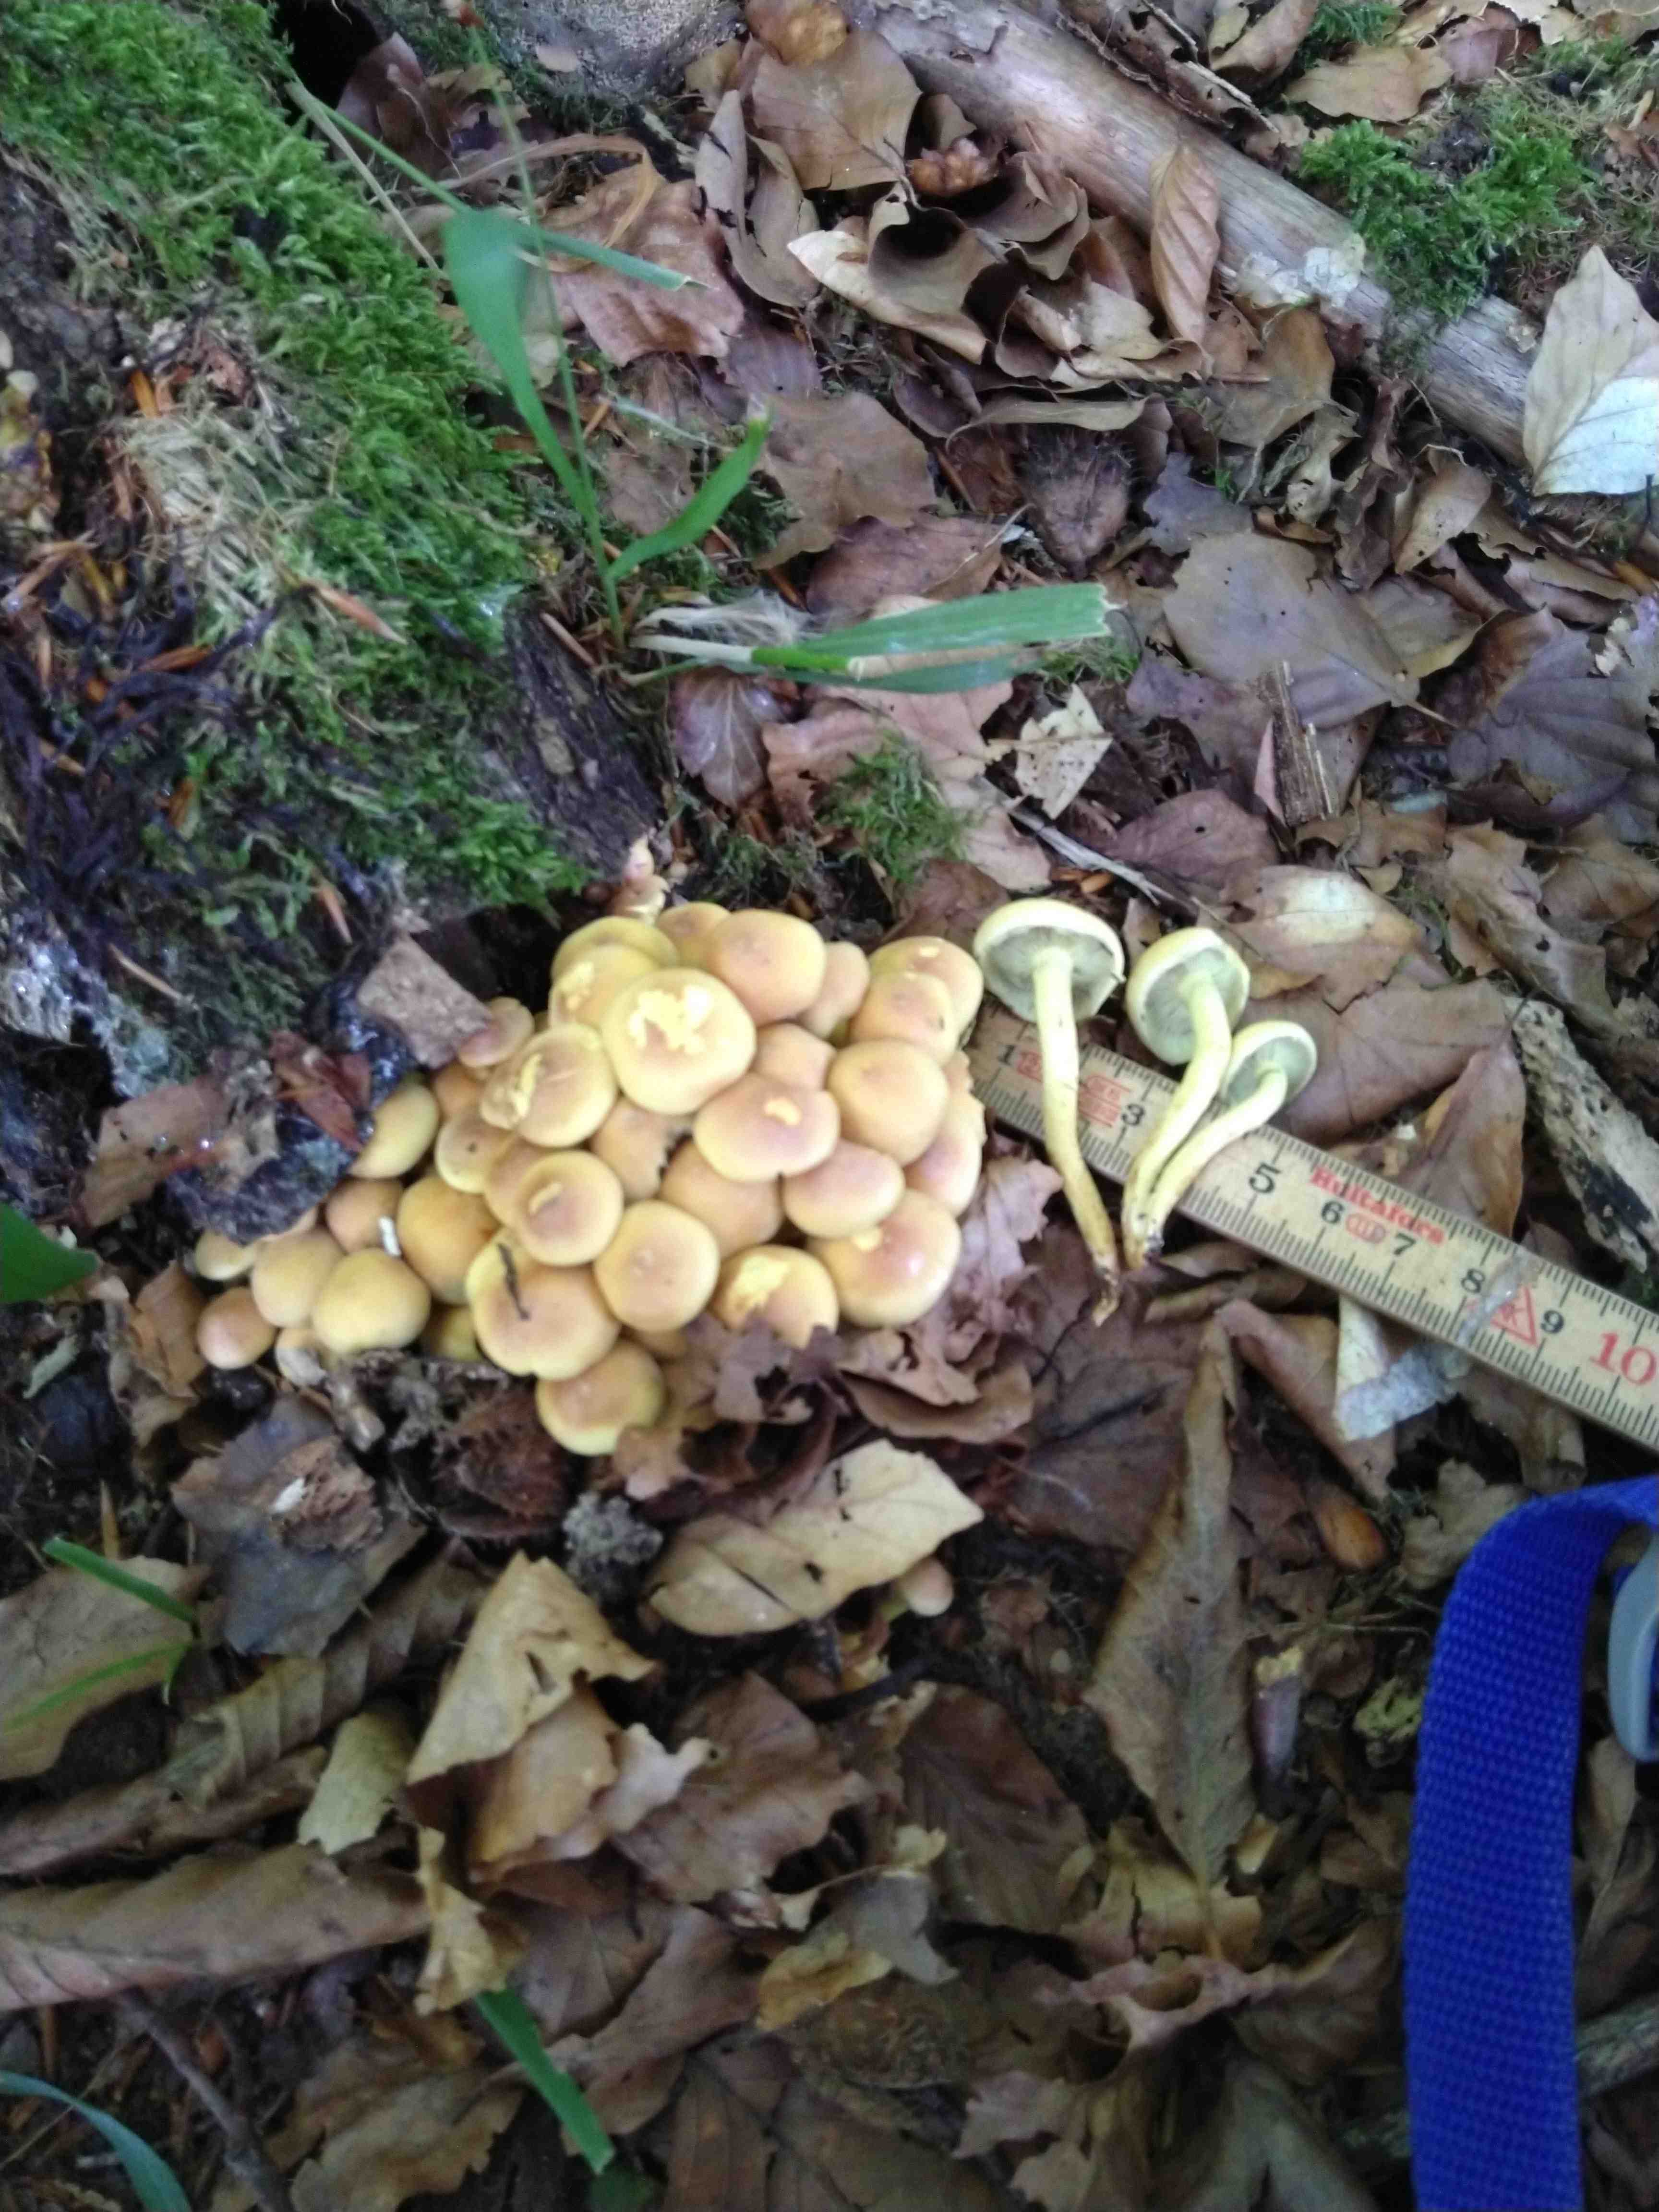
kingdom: Fungi
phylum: Basidiomycota
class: Agaricomycetes
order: Agaricales
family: Strophariaceae
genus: Hypholoma
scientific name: Hypholoma fasciculare
